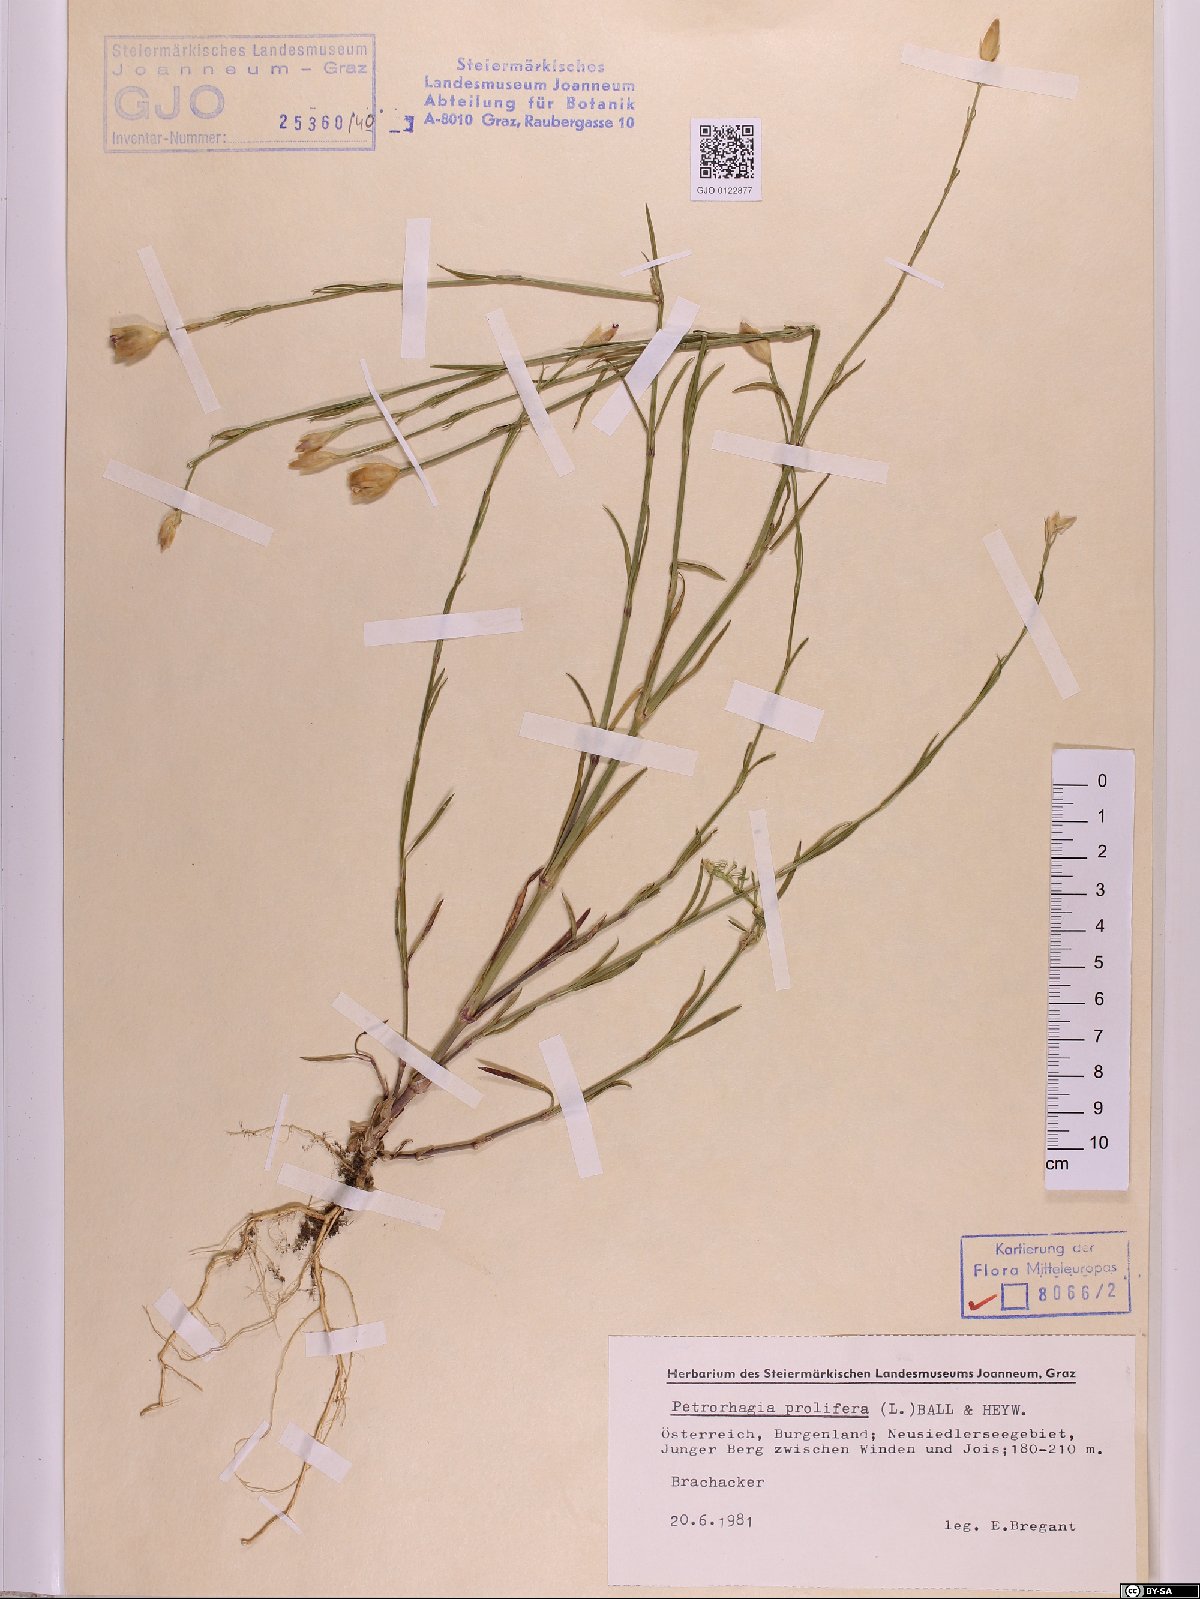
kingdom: Plantae
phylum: Tracheophyta
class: Magnoliopsida
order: Caryophyllales
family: Caryophyllaceae
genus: Petrorhagia
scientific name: Petrorhagia prolifera
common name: Proliferous pink
